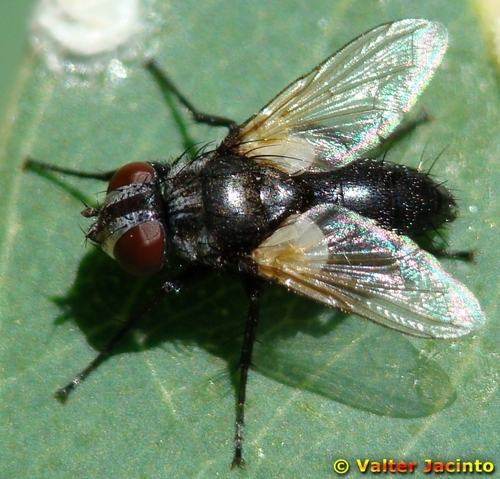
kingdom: Animalia
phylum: Arthropoda
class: Insecta
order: Diptera
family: Tachinidae
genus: Leucostoma
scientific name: Leucostoma
